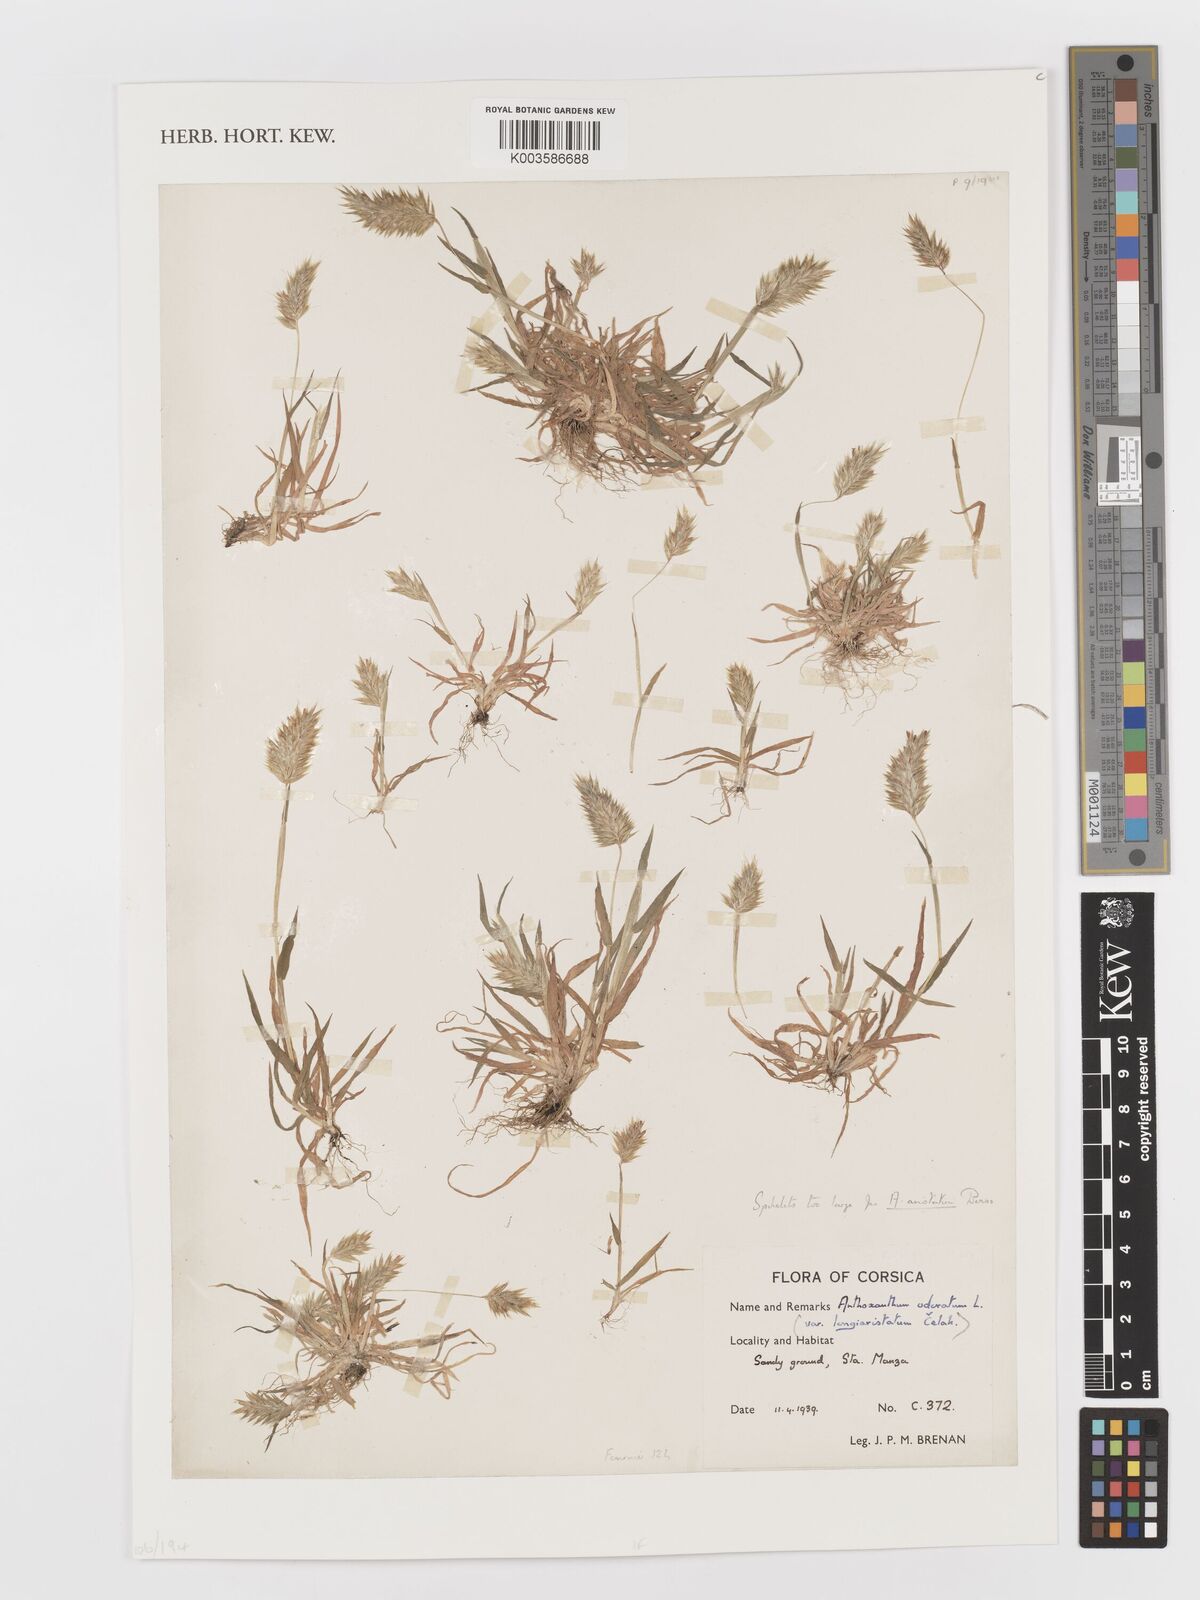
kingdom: Plantae
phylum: Tracheophyta
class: Liliopsida
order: Poales
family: Poaceae
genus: Anthoxanthum
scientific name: Anthoxanthum odoratum
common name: Sweet vernalgrass
